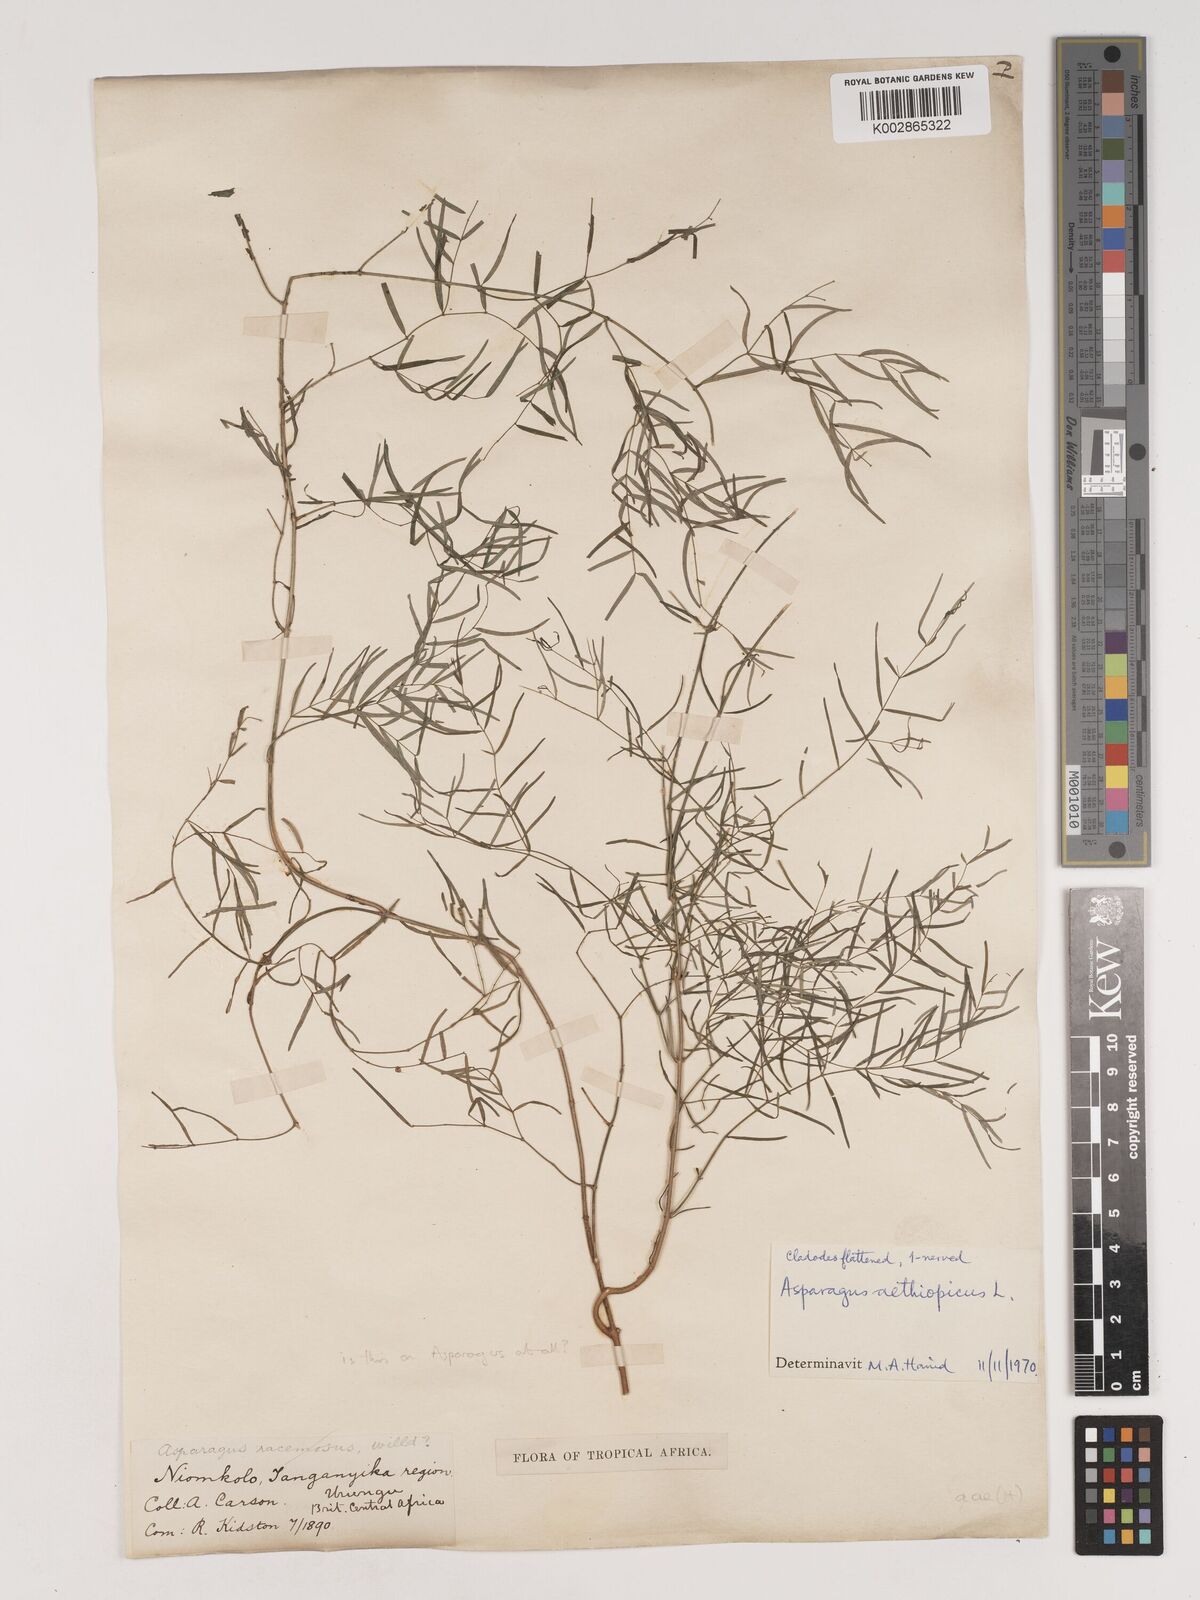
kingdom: Plantae
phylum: Tracheophyta
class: Liliopsida
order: Asparagales
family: Asparagaceae
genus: Asparagus
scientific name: Asparagus
